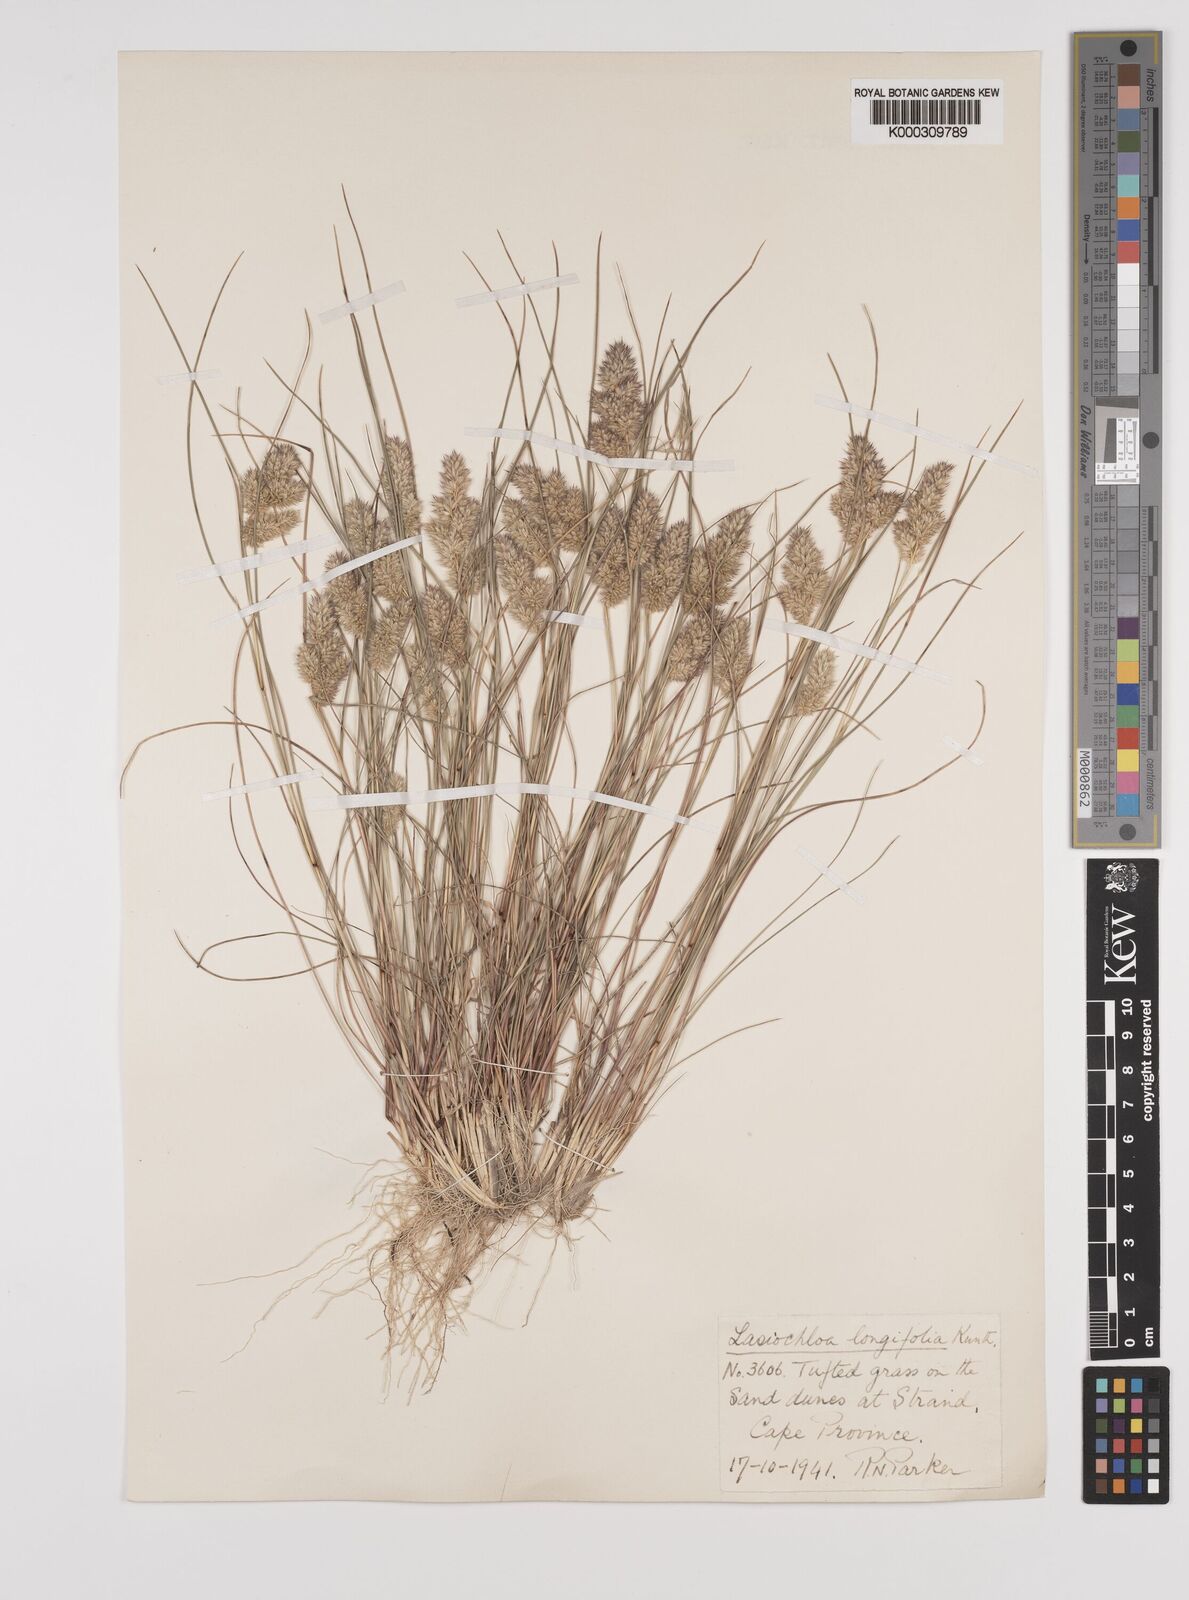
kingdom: Plantae
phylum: Tracheophyta
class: Liliopsida
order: Poales
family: Poaceae
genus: Tribolium
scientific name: Tribolium hispidum
